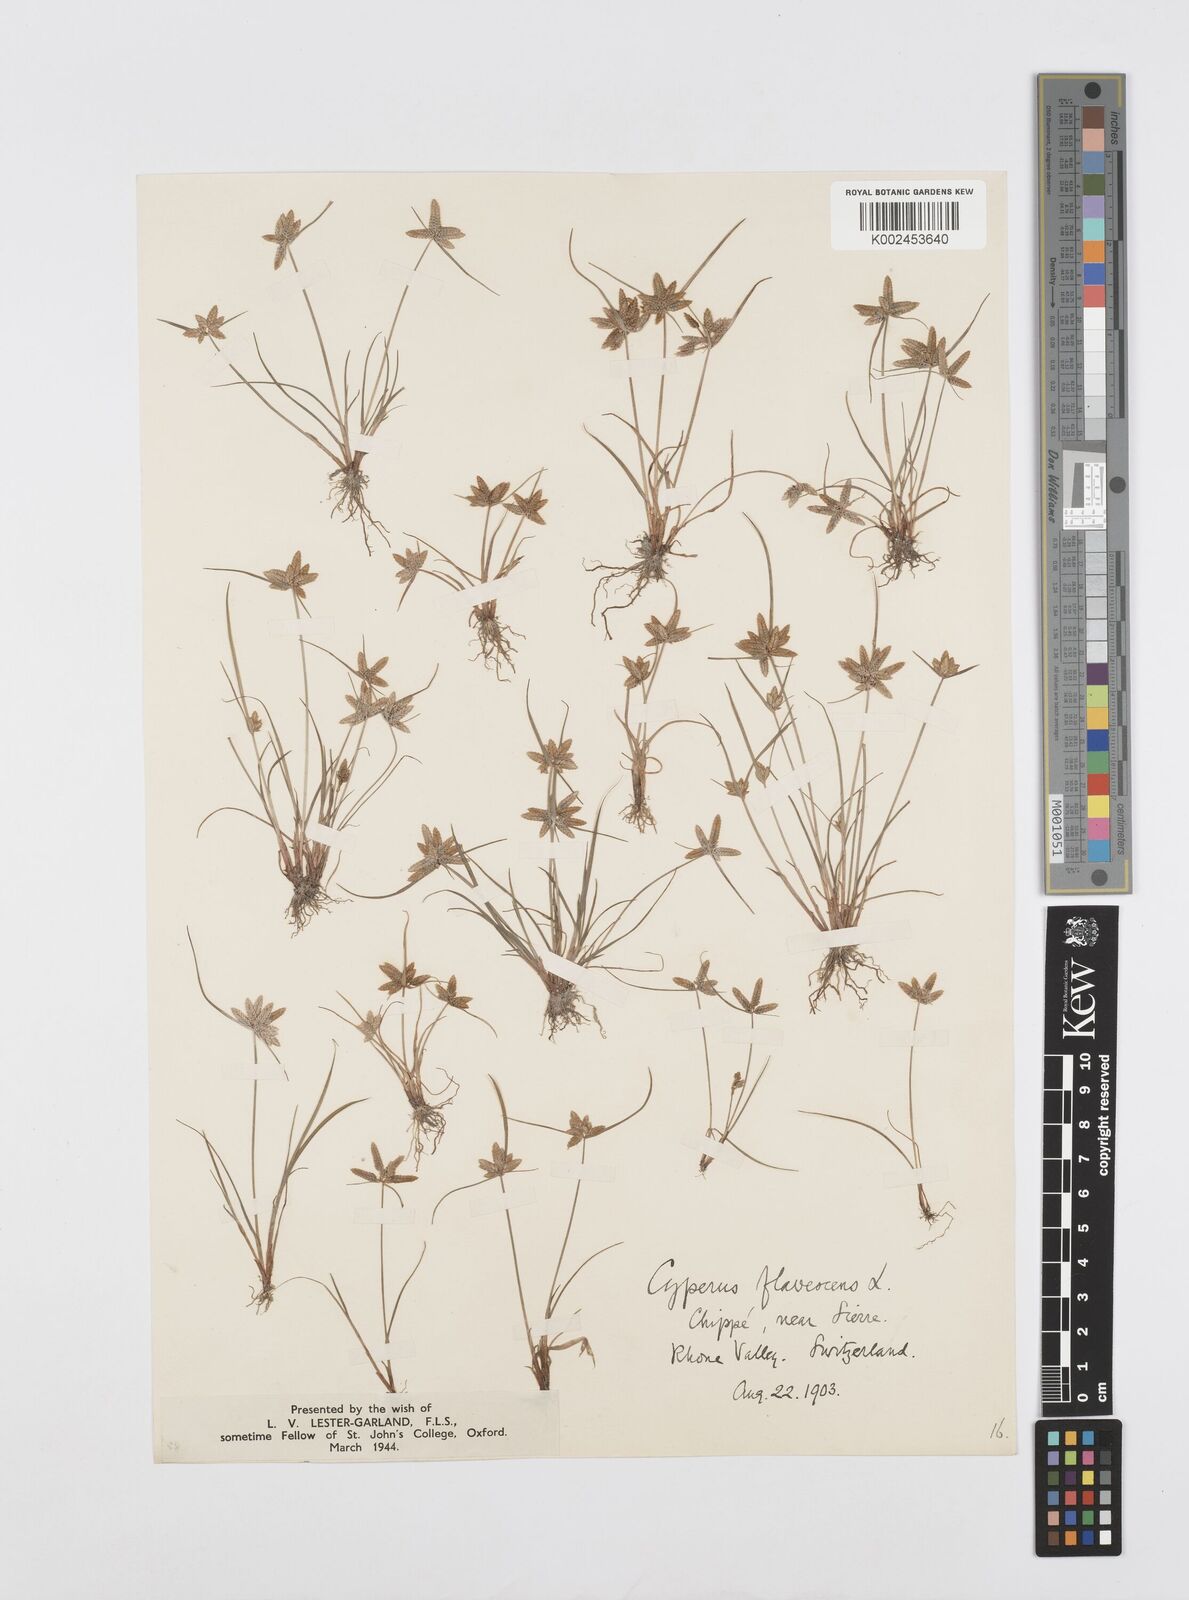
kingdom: Plantae
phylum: Tracheophyta
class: Liliopsida
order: Poales
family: Cyperaceae
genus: Cyperus
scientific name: Cyperus flavescens
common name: Yellow galingale
